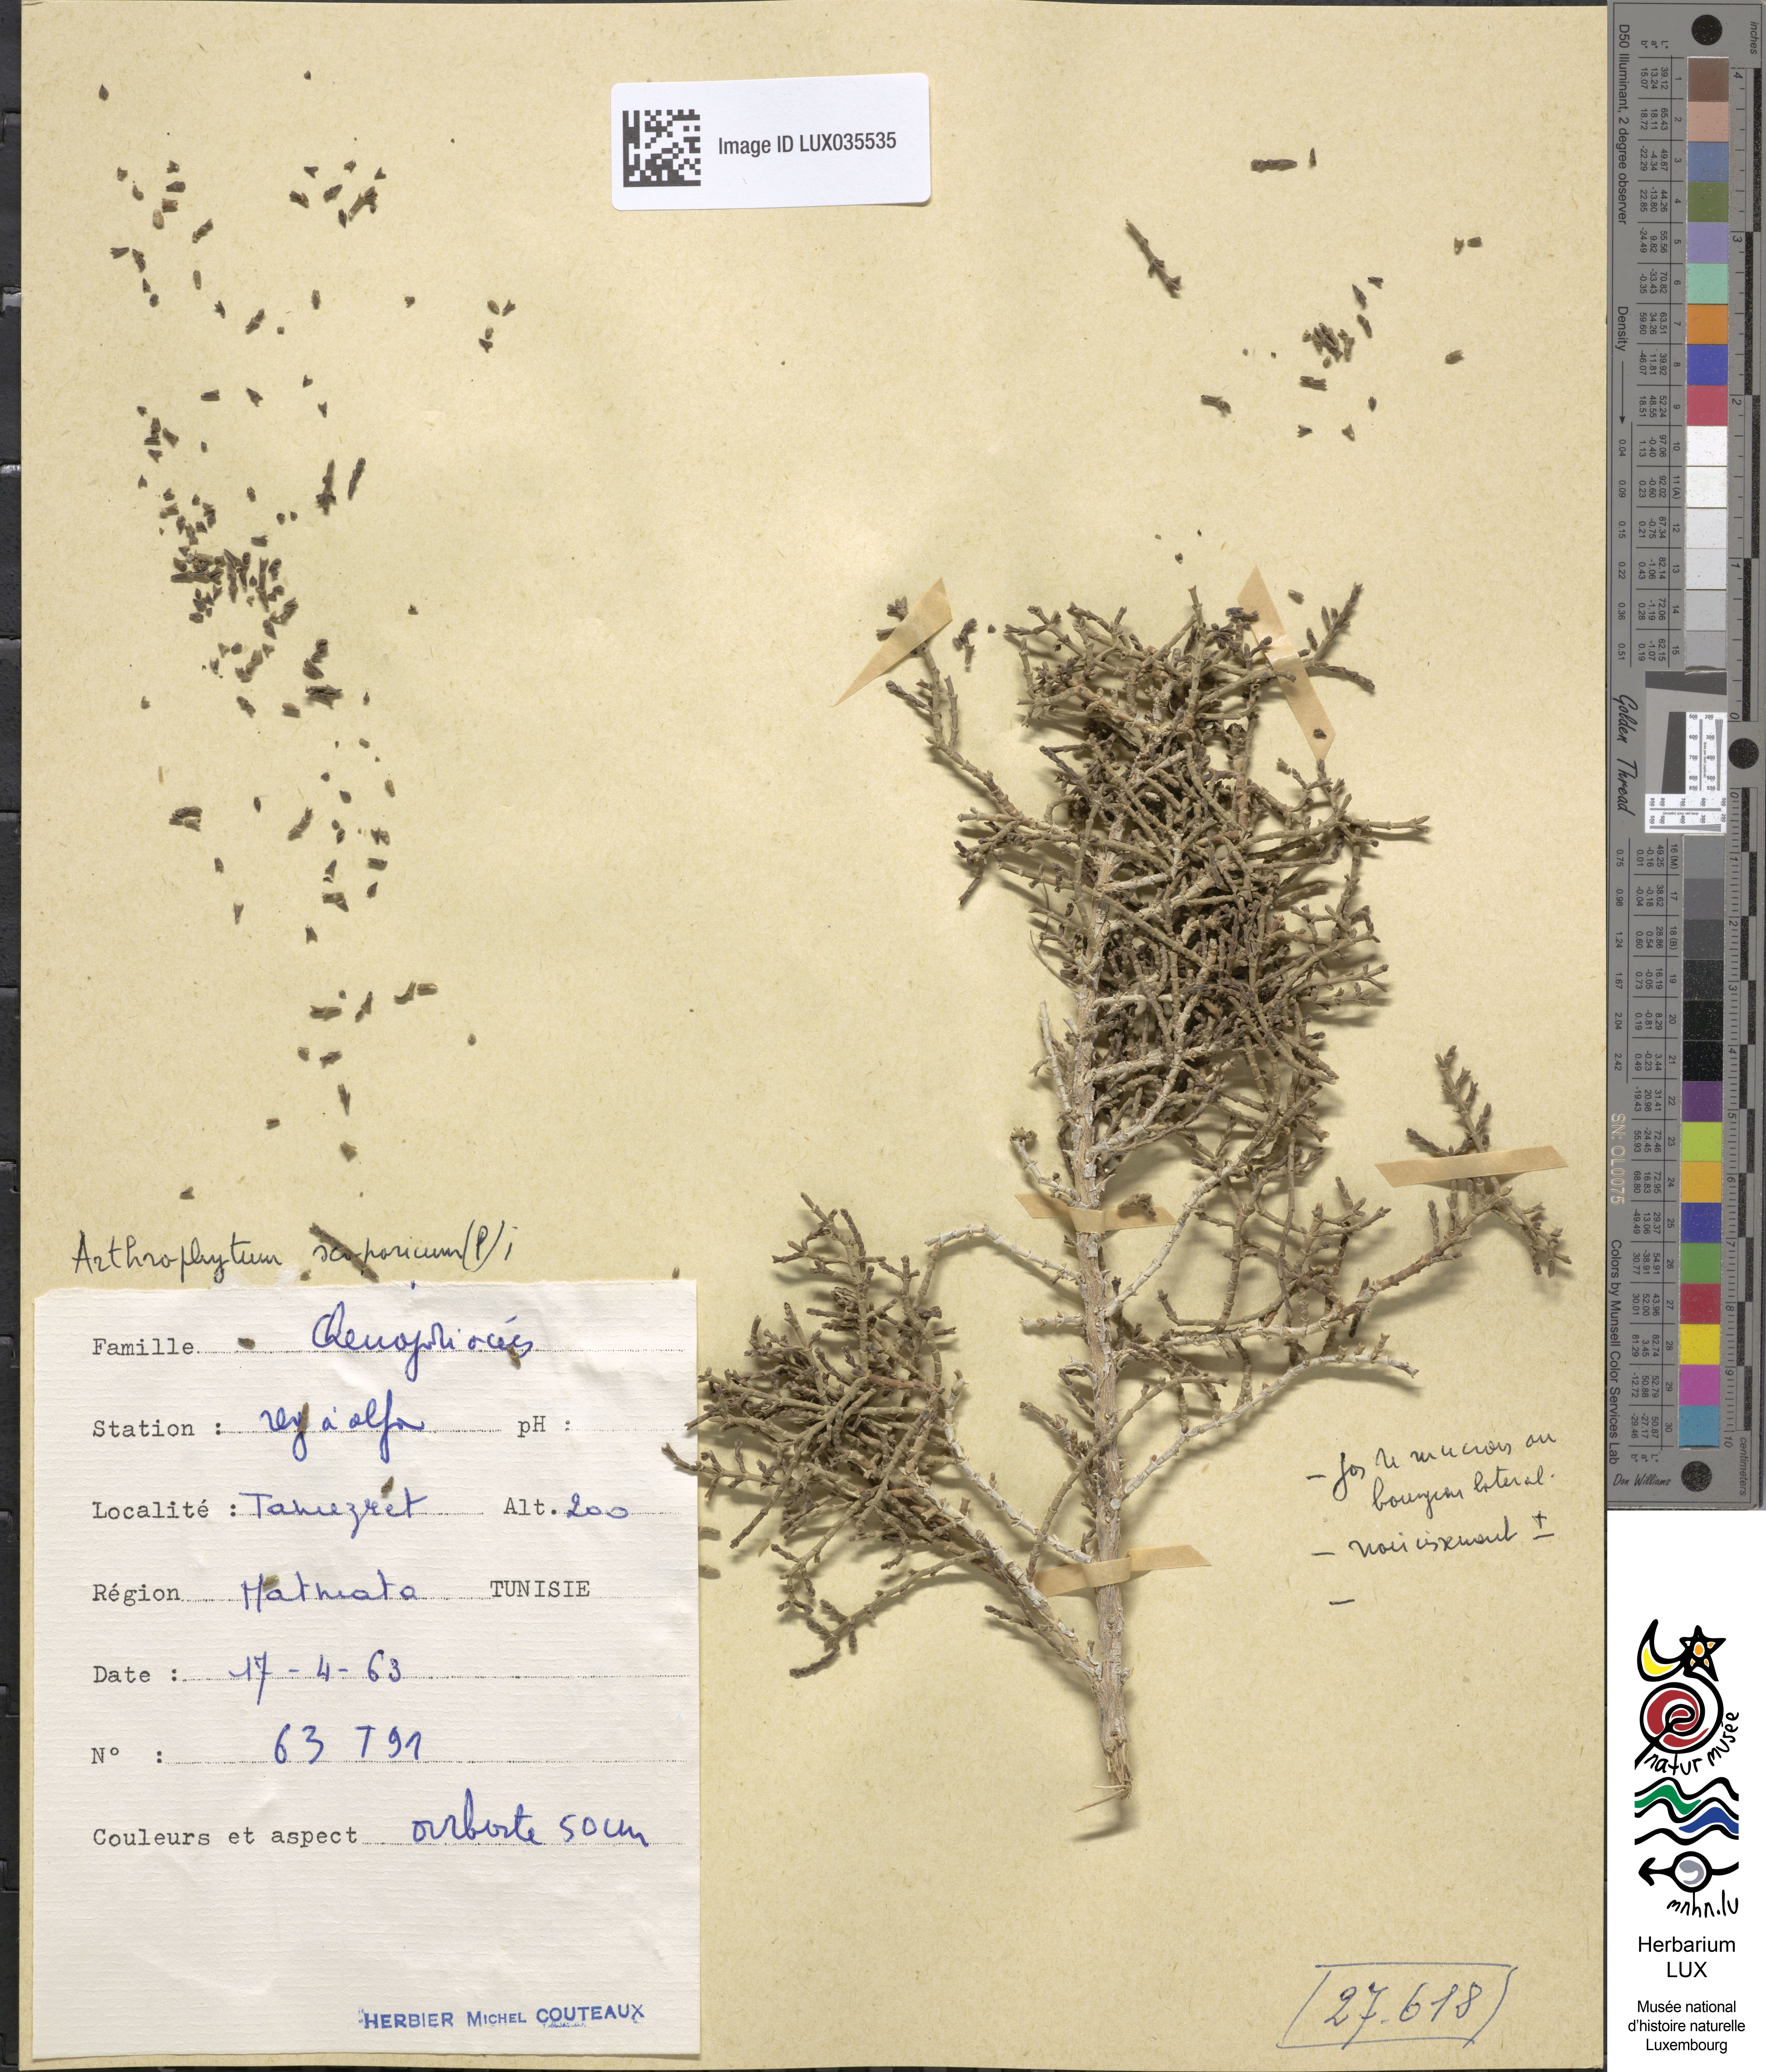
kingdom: Plantae
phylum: Tracheophyta
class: Magnoliopsida
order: Caryophyllales
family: Amaranthaceae
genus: Haloxylon
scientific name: Haloxylon scoparium
